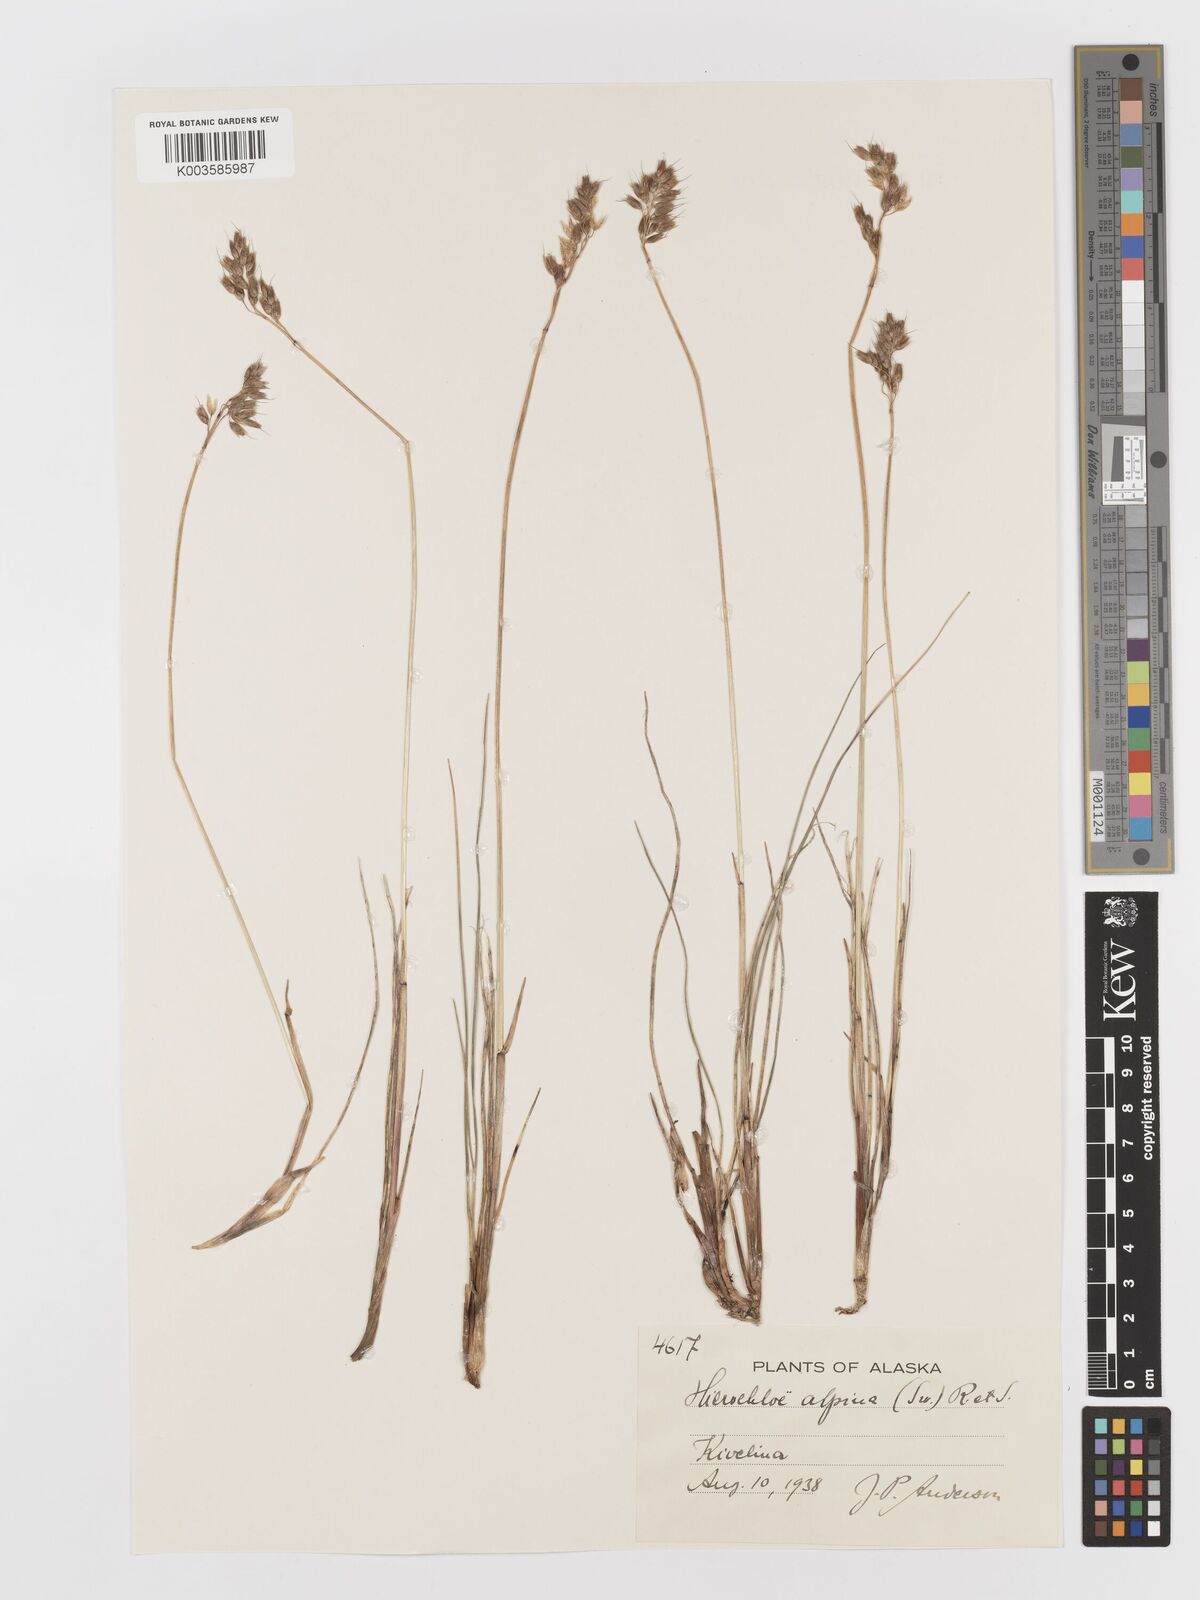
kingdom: Plantae
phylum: Tracheophyta
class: Liliopsida
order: Poales
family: Poaceae
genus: Anthoxanthum
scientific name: Anthoxanthum monticola
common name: Alpine sweetgrass
